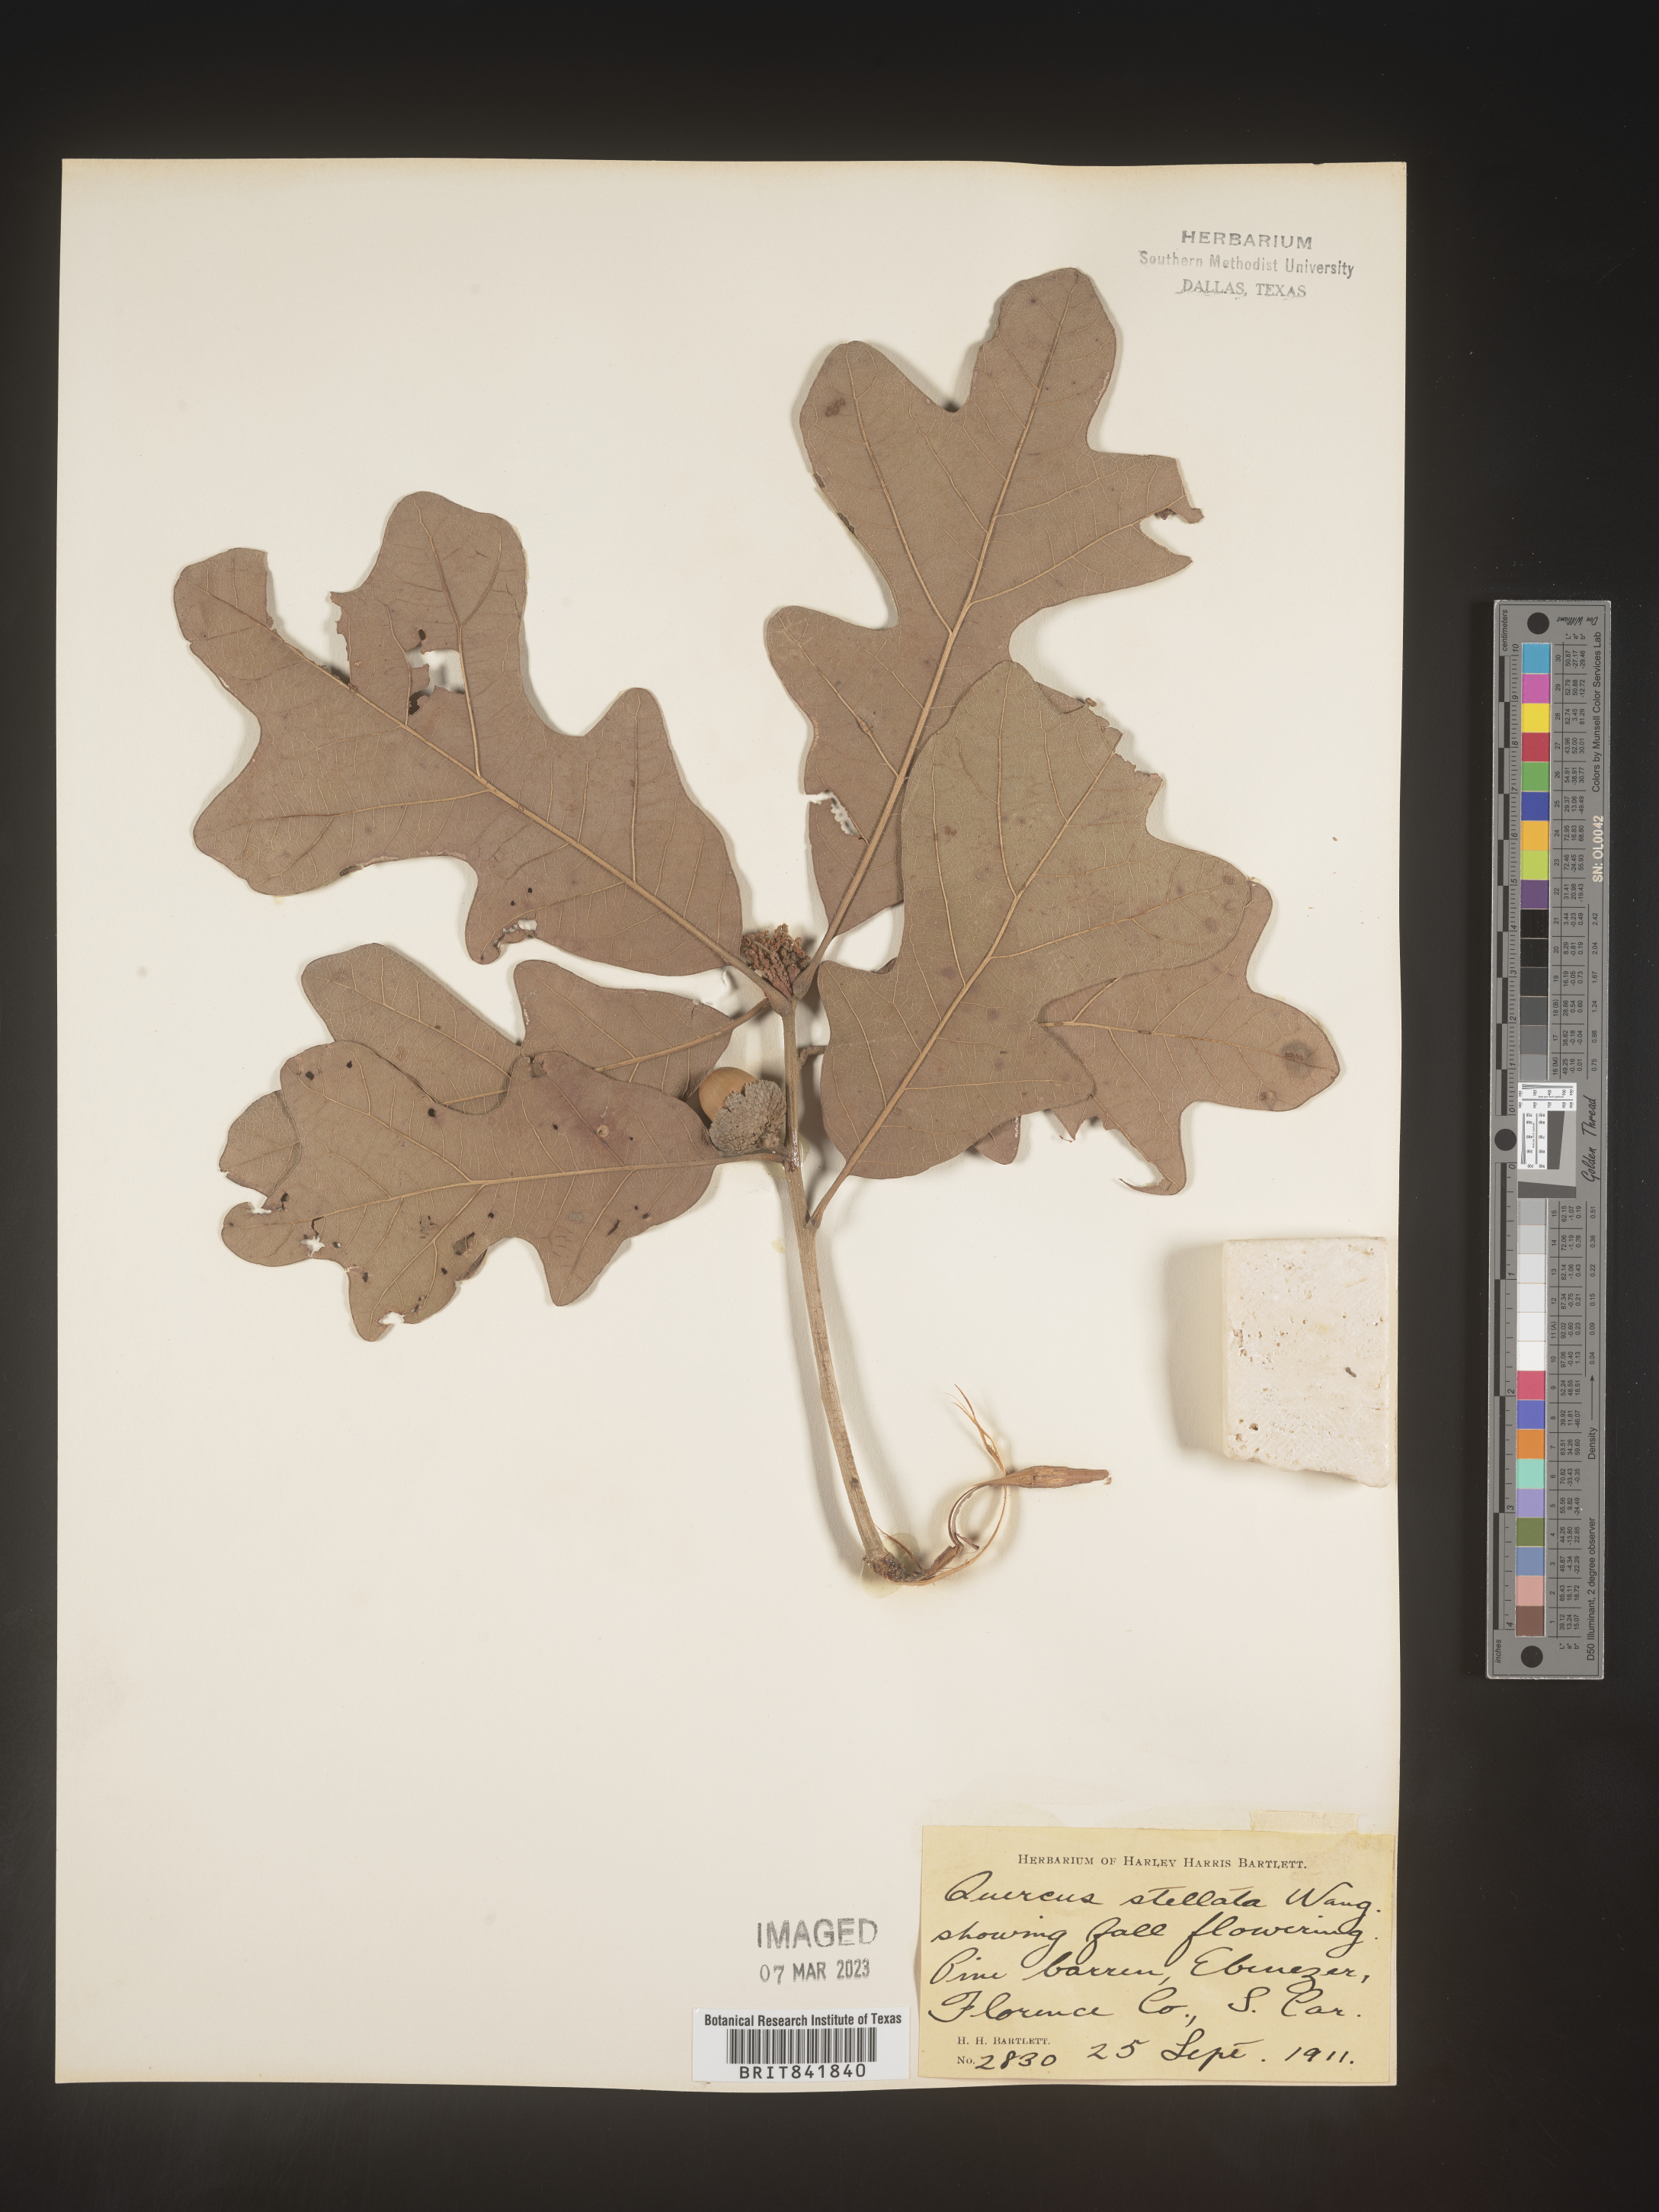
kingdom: Plantae
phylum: Tracheophyta
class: Magnoliopsida
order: Fagales
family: Fagaceae
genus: Quercus
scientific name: Quercus stellata
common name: Post oak
